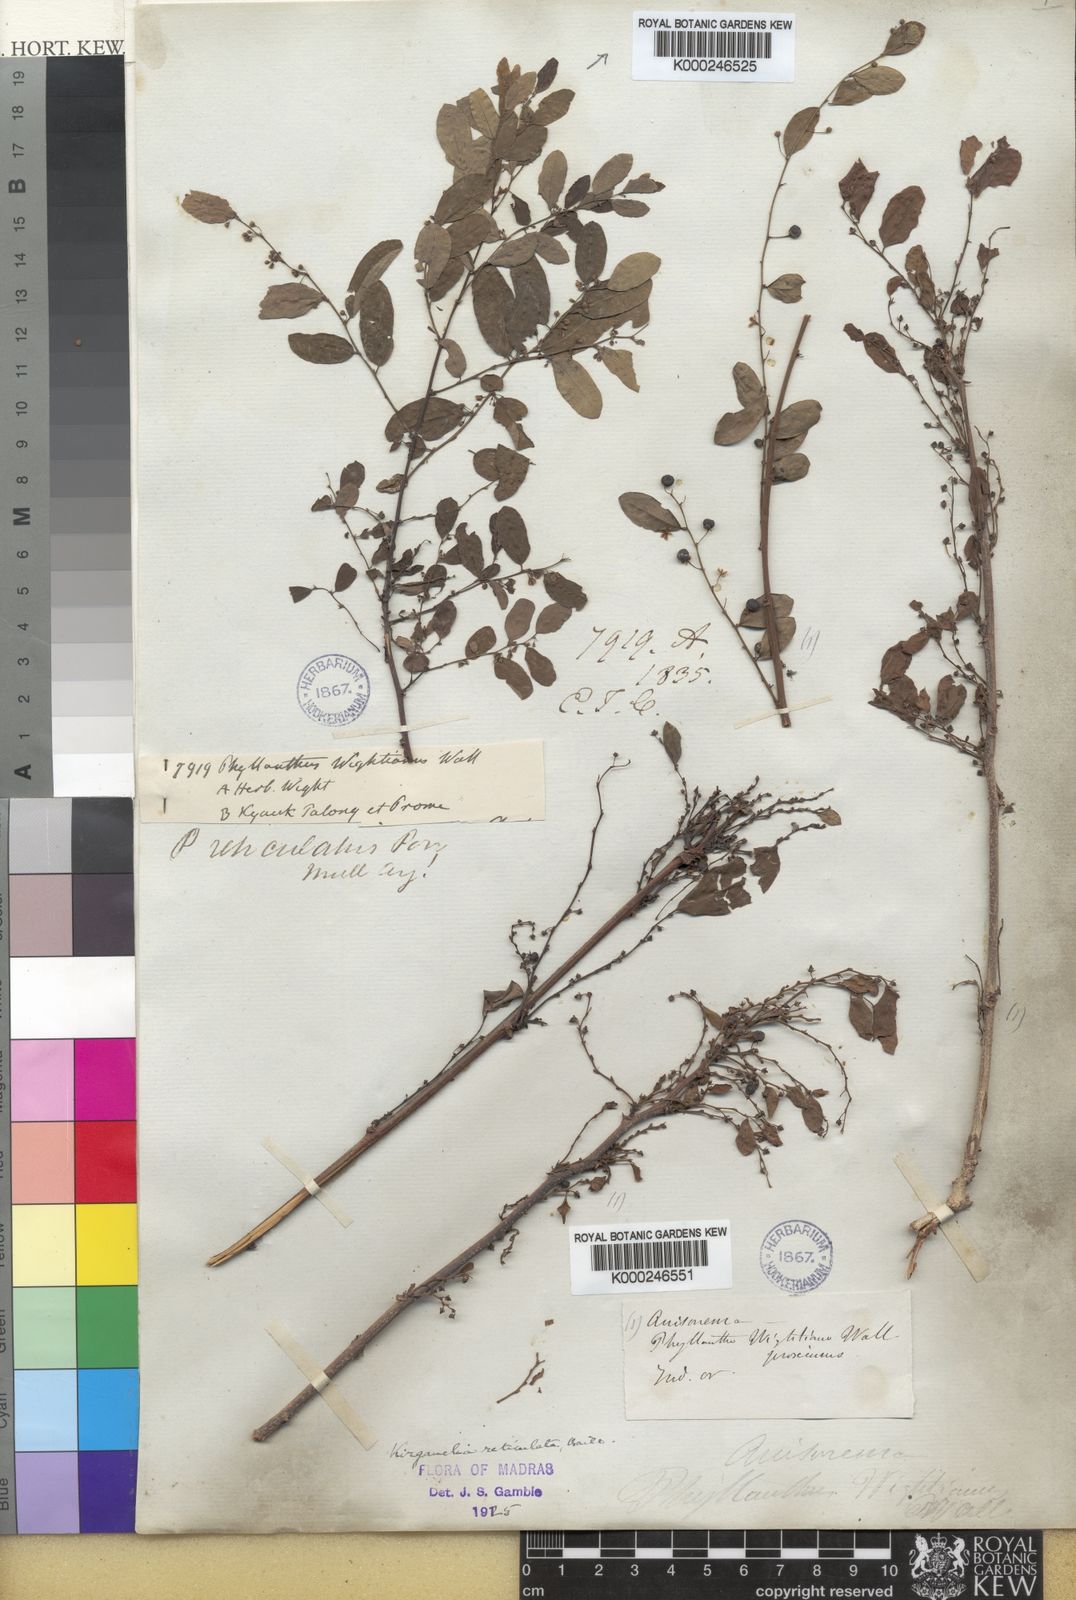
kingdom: Plantae
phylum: Tracheophyta
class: Magnoliopsida
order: Malpighiales
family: Phyllanthaceae
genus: Phyllanthus
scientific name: Phyllanthus reticulatus
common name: Potato bush
